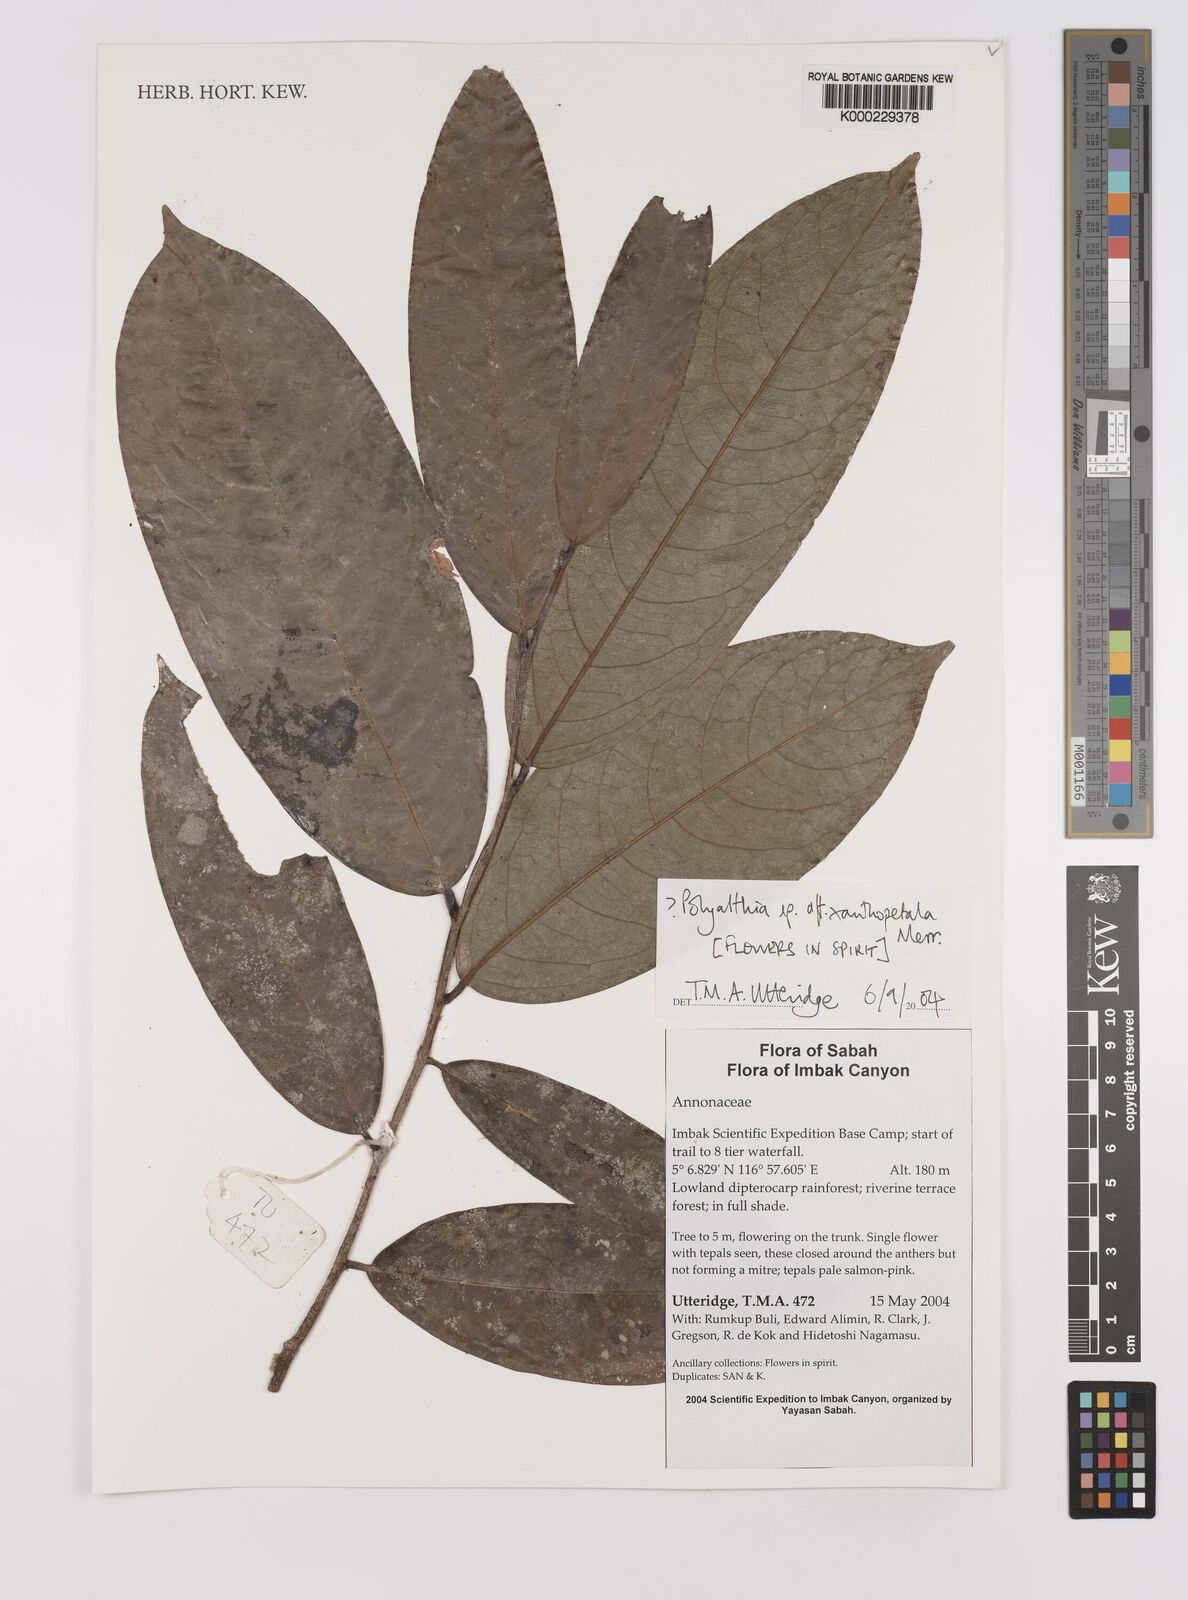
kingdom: Plantae
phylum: Tracheophyta
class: Magnoliopsida
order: Magnoliales
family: Annonaceae
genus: Polyalthia
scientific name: Polyalthia
